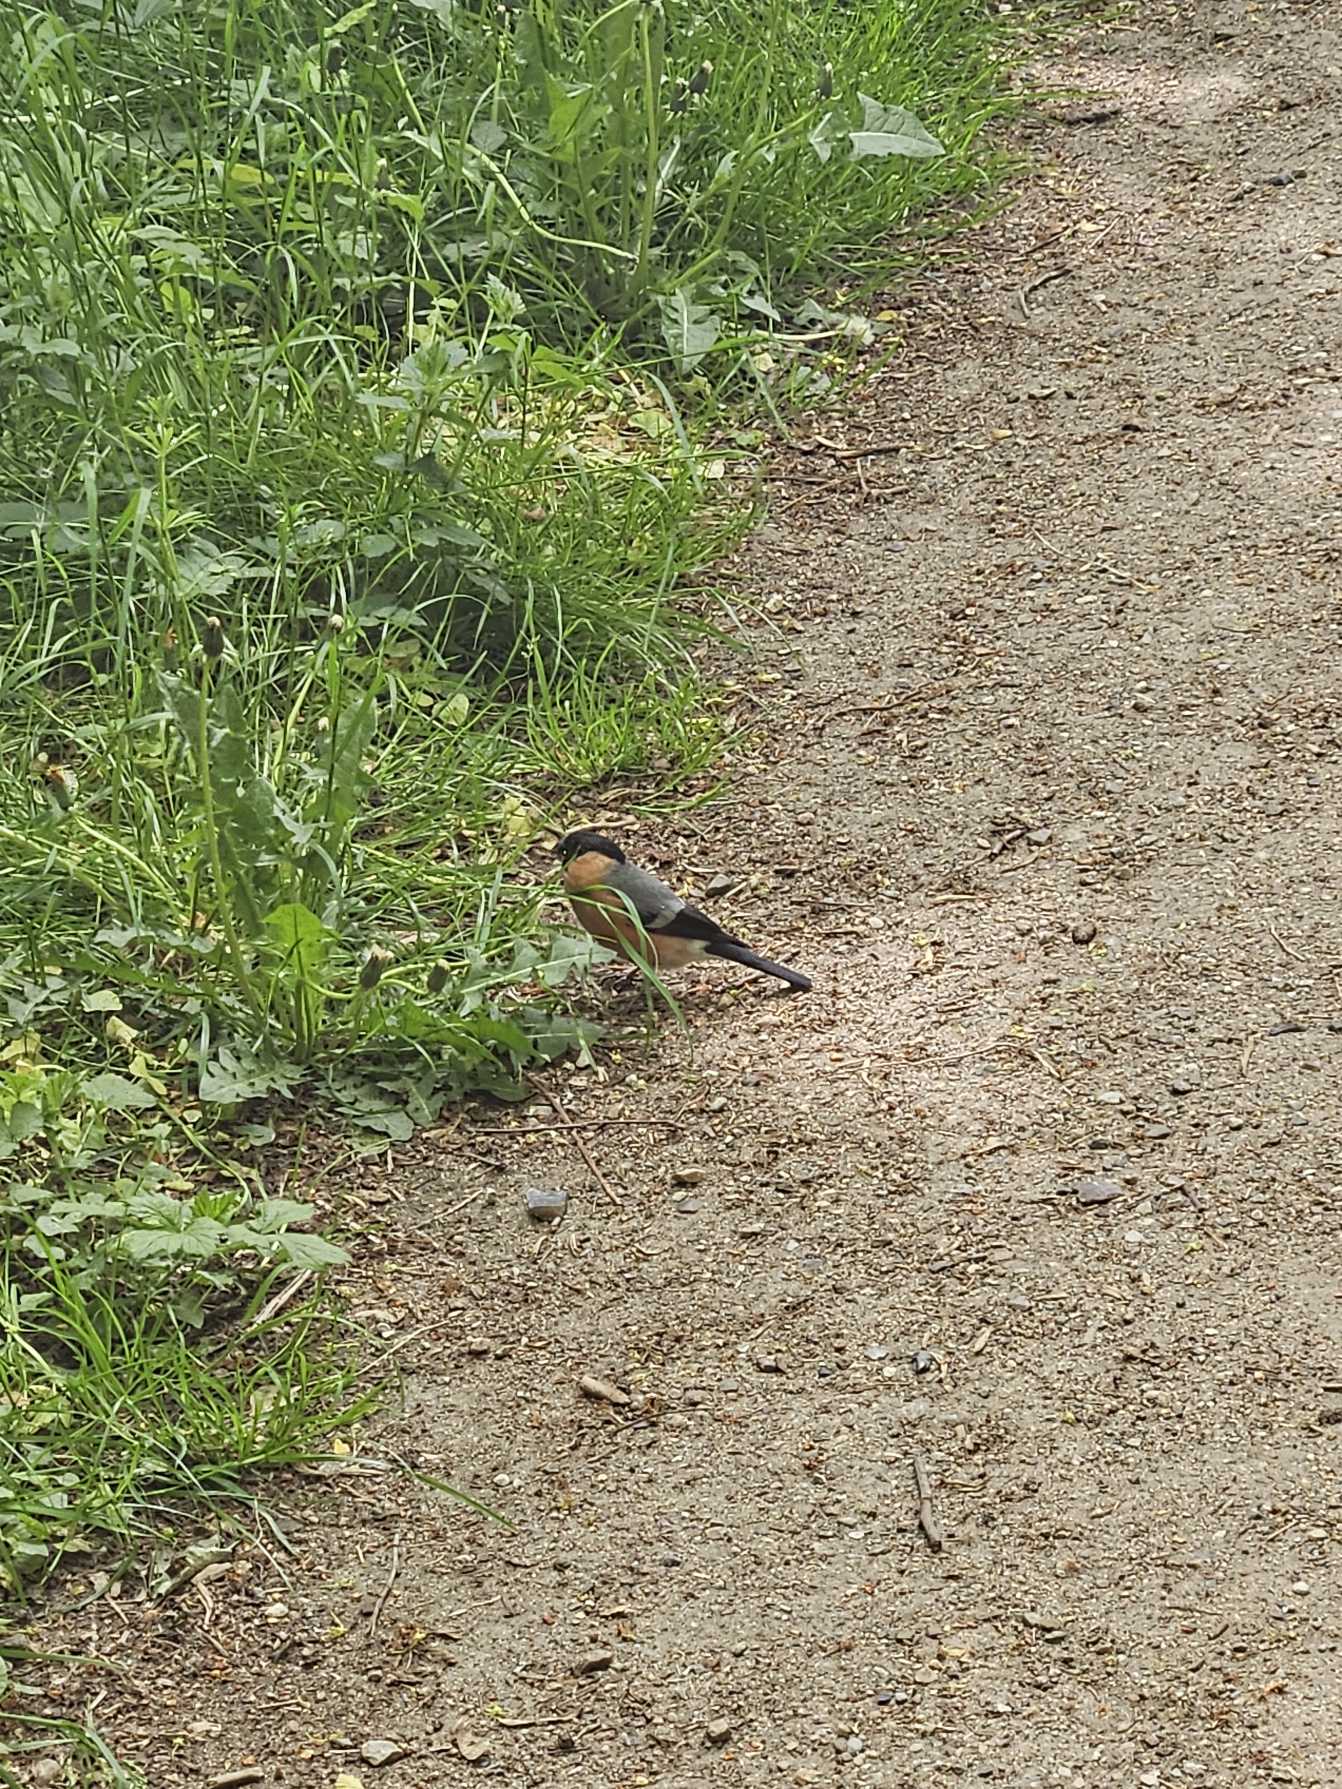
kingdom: Animalia
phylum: Chordata
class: Aves
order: Passeriformes
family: Fringillidae
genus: Pyrrhula
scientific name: Pyrrhula pyrrhula
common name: Dompap
